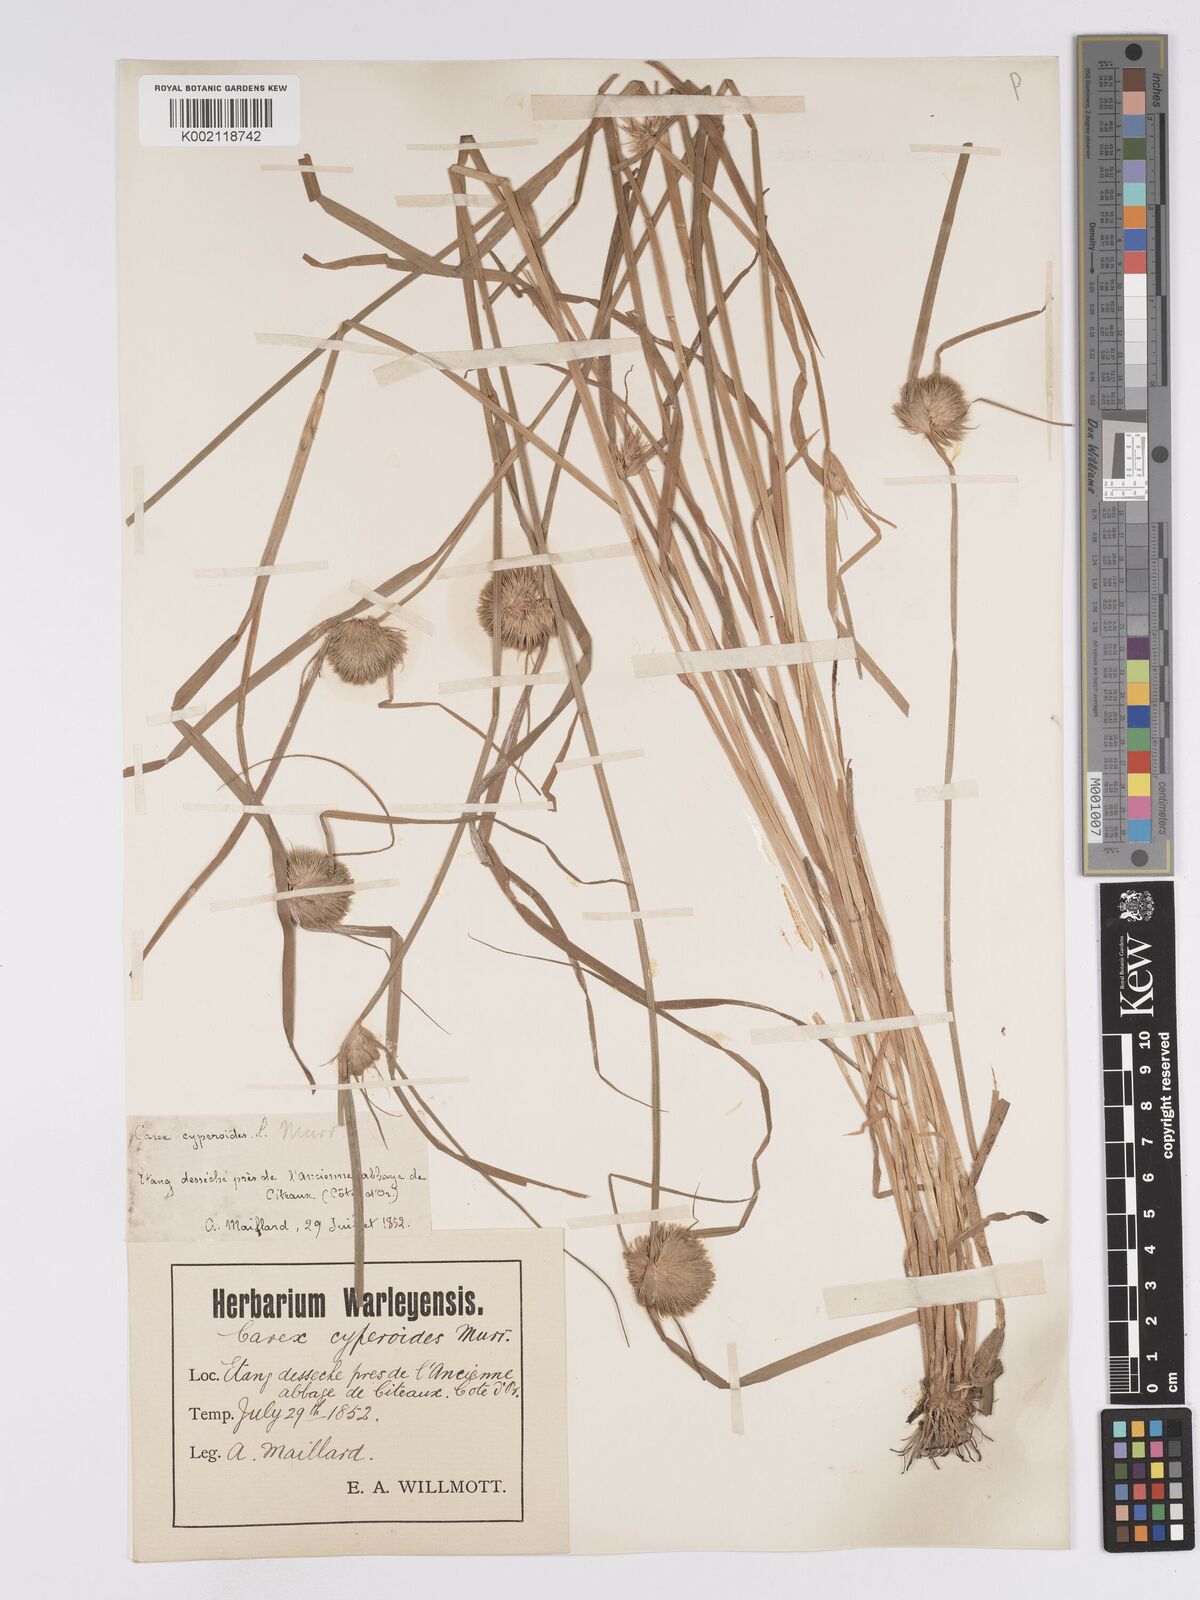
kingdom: Plantae
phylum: Tracheophyta
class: Liliopsida
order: Poales
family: Cyperaceae
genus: Carex
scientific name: Carex bohemica
